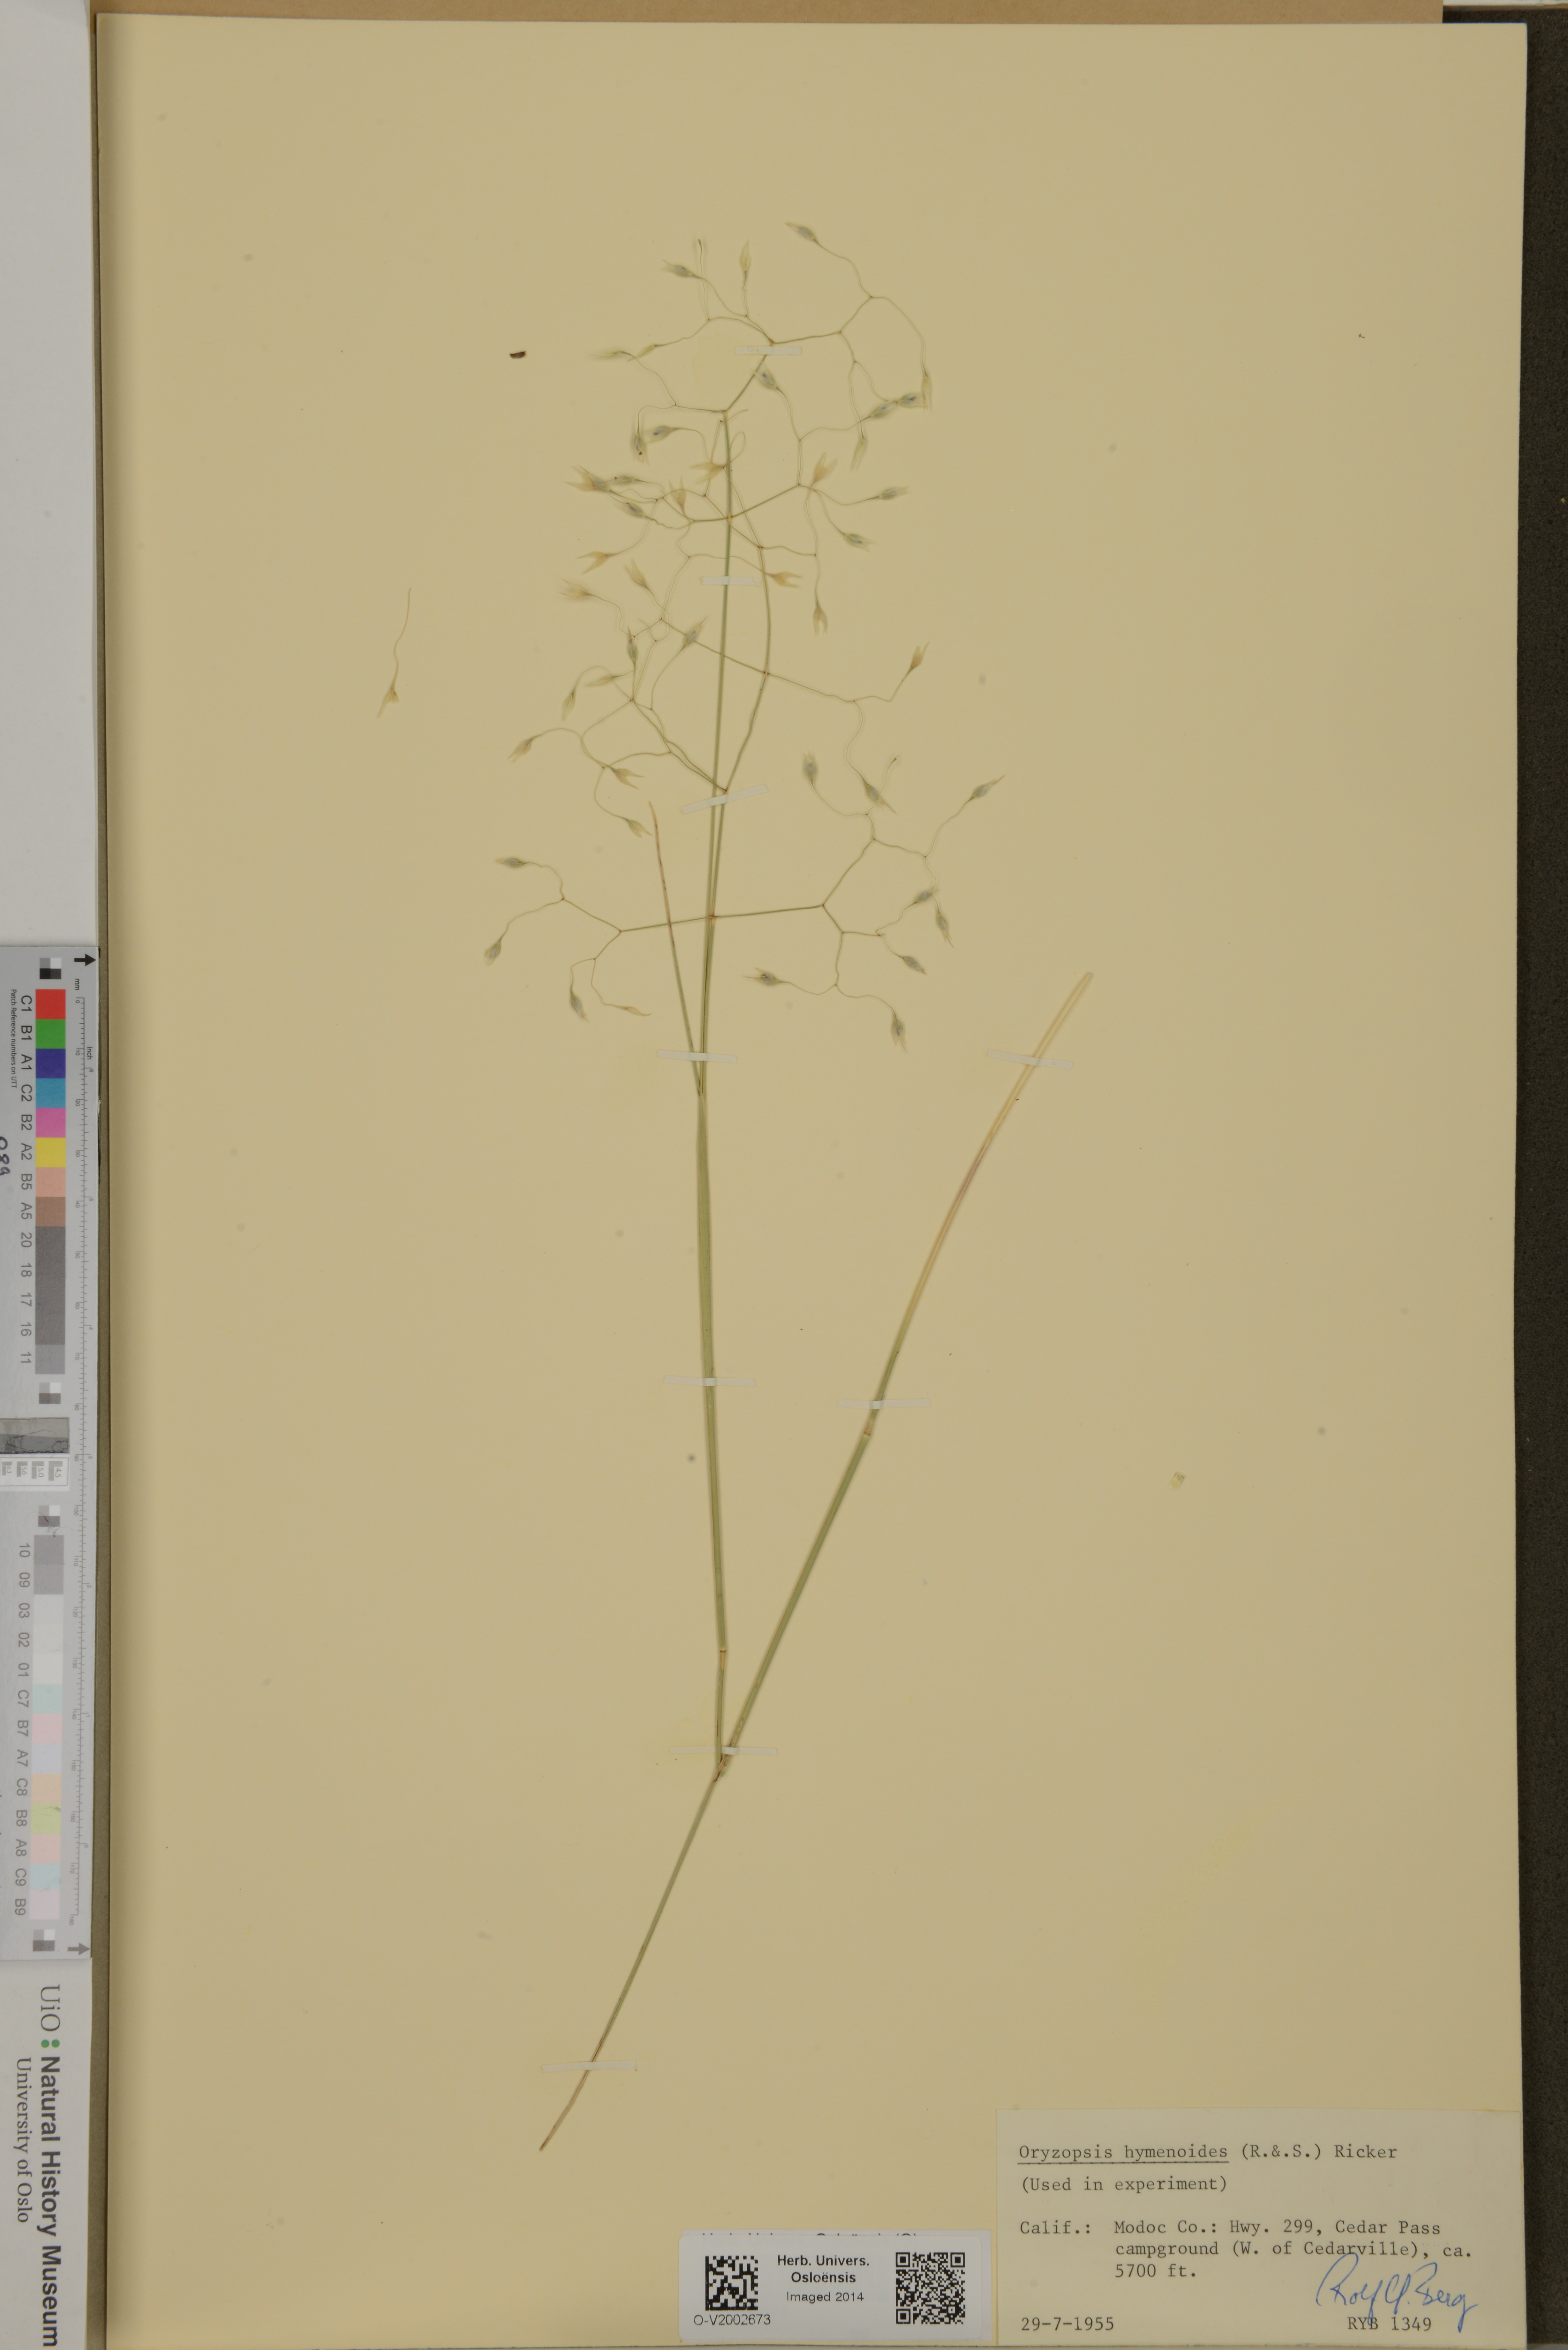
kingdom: Plantae
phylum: Tracheophyta
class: Liliopsida
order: Poales
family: Poaceae
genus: Eriocoma
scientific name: Eriocoma hymenoides
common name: Indian mountain ricegrass
